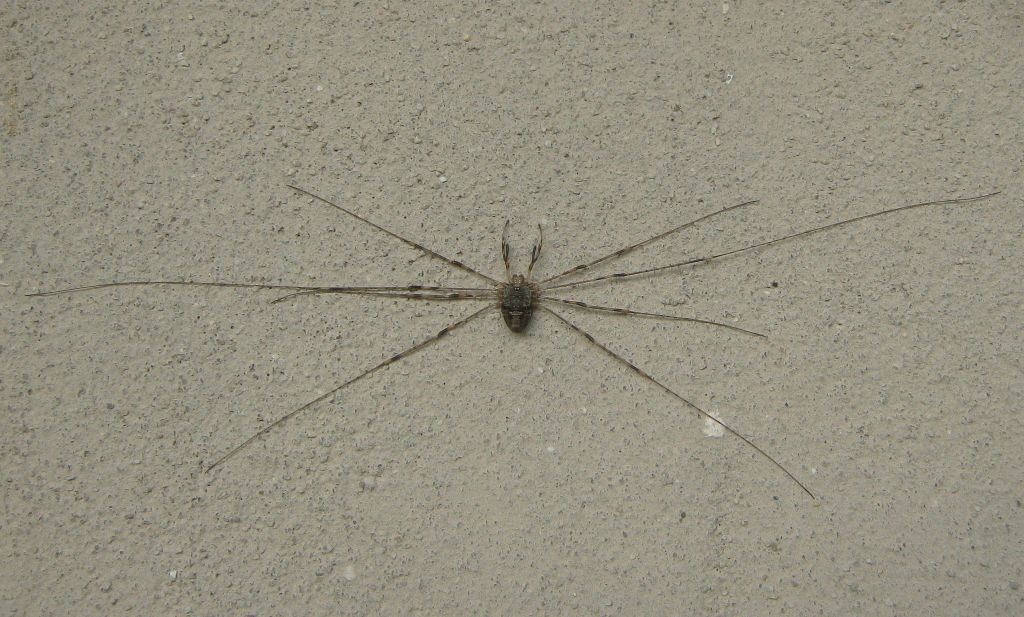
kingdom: Animalia
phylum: Arthropoda
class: Arachnida
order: Opiliones
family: Phalangiidae
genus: Dicranopalpus
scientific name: Dicranopalpus ramosus
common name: Gaffelmejer
